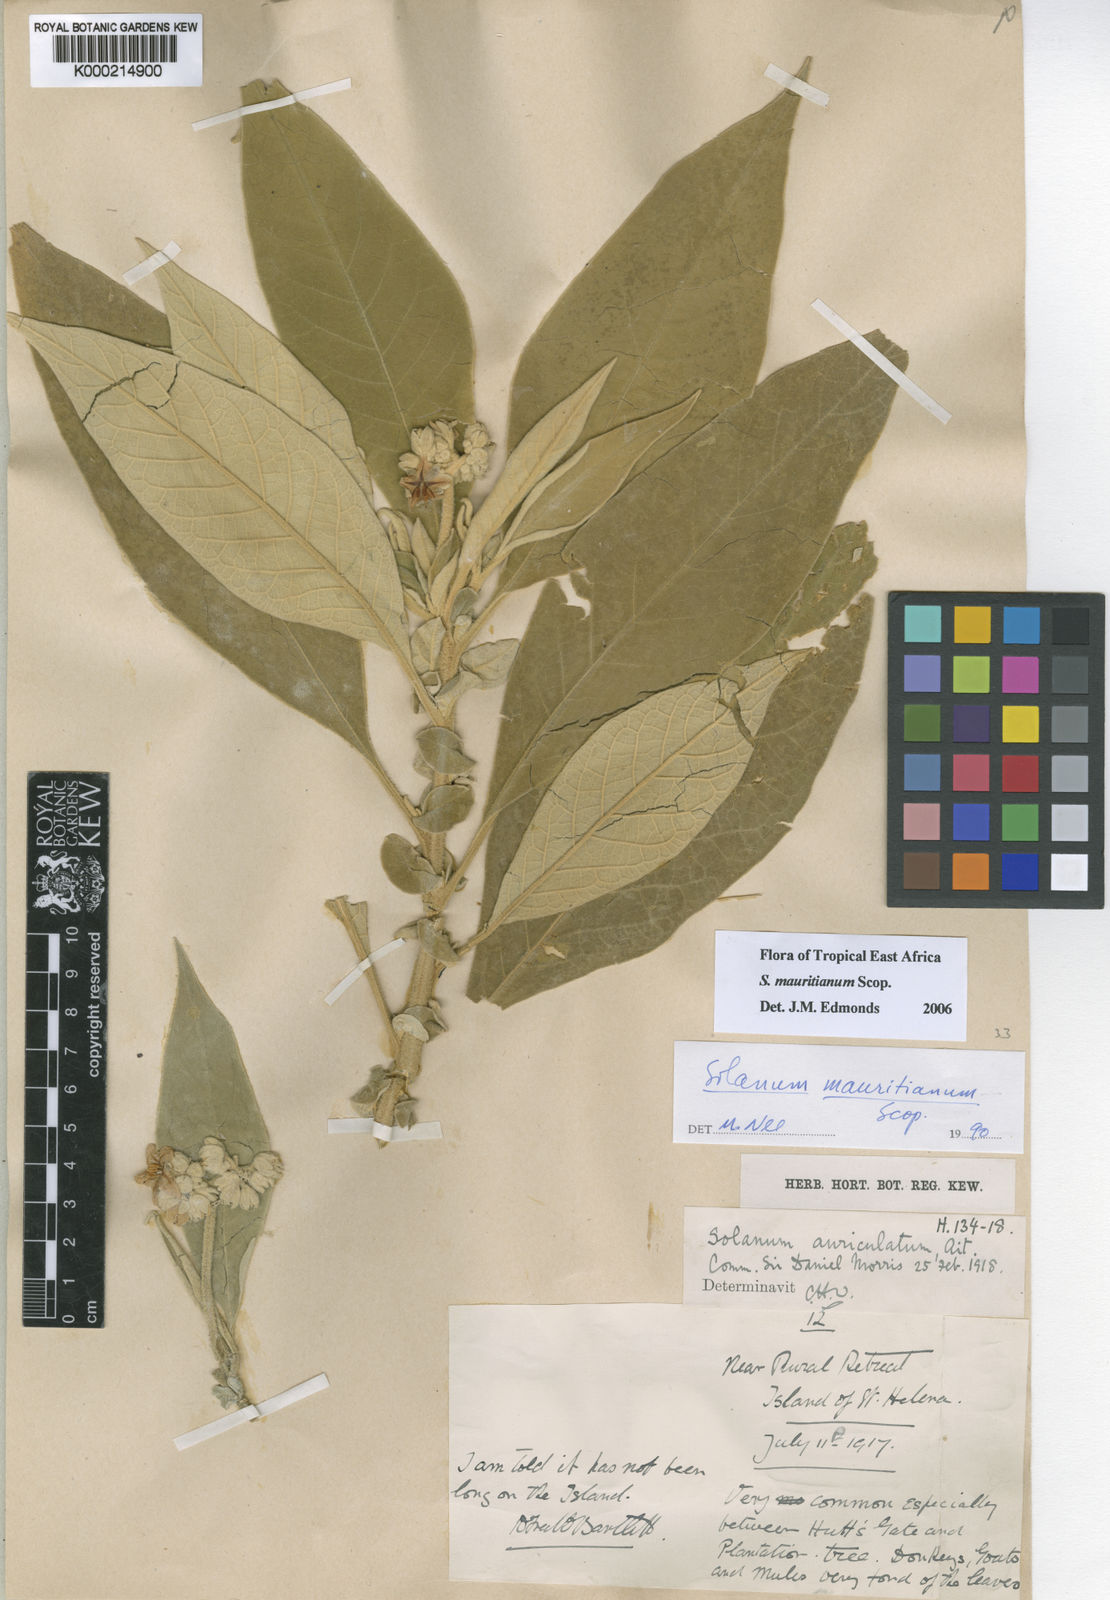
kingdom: Plantae
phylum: Tracheophyta
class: Magnoliopsida
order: Solanales
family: Solanaceae
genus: Solanum
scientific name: Solanum mauritianum
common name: Earleaf nightshade
